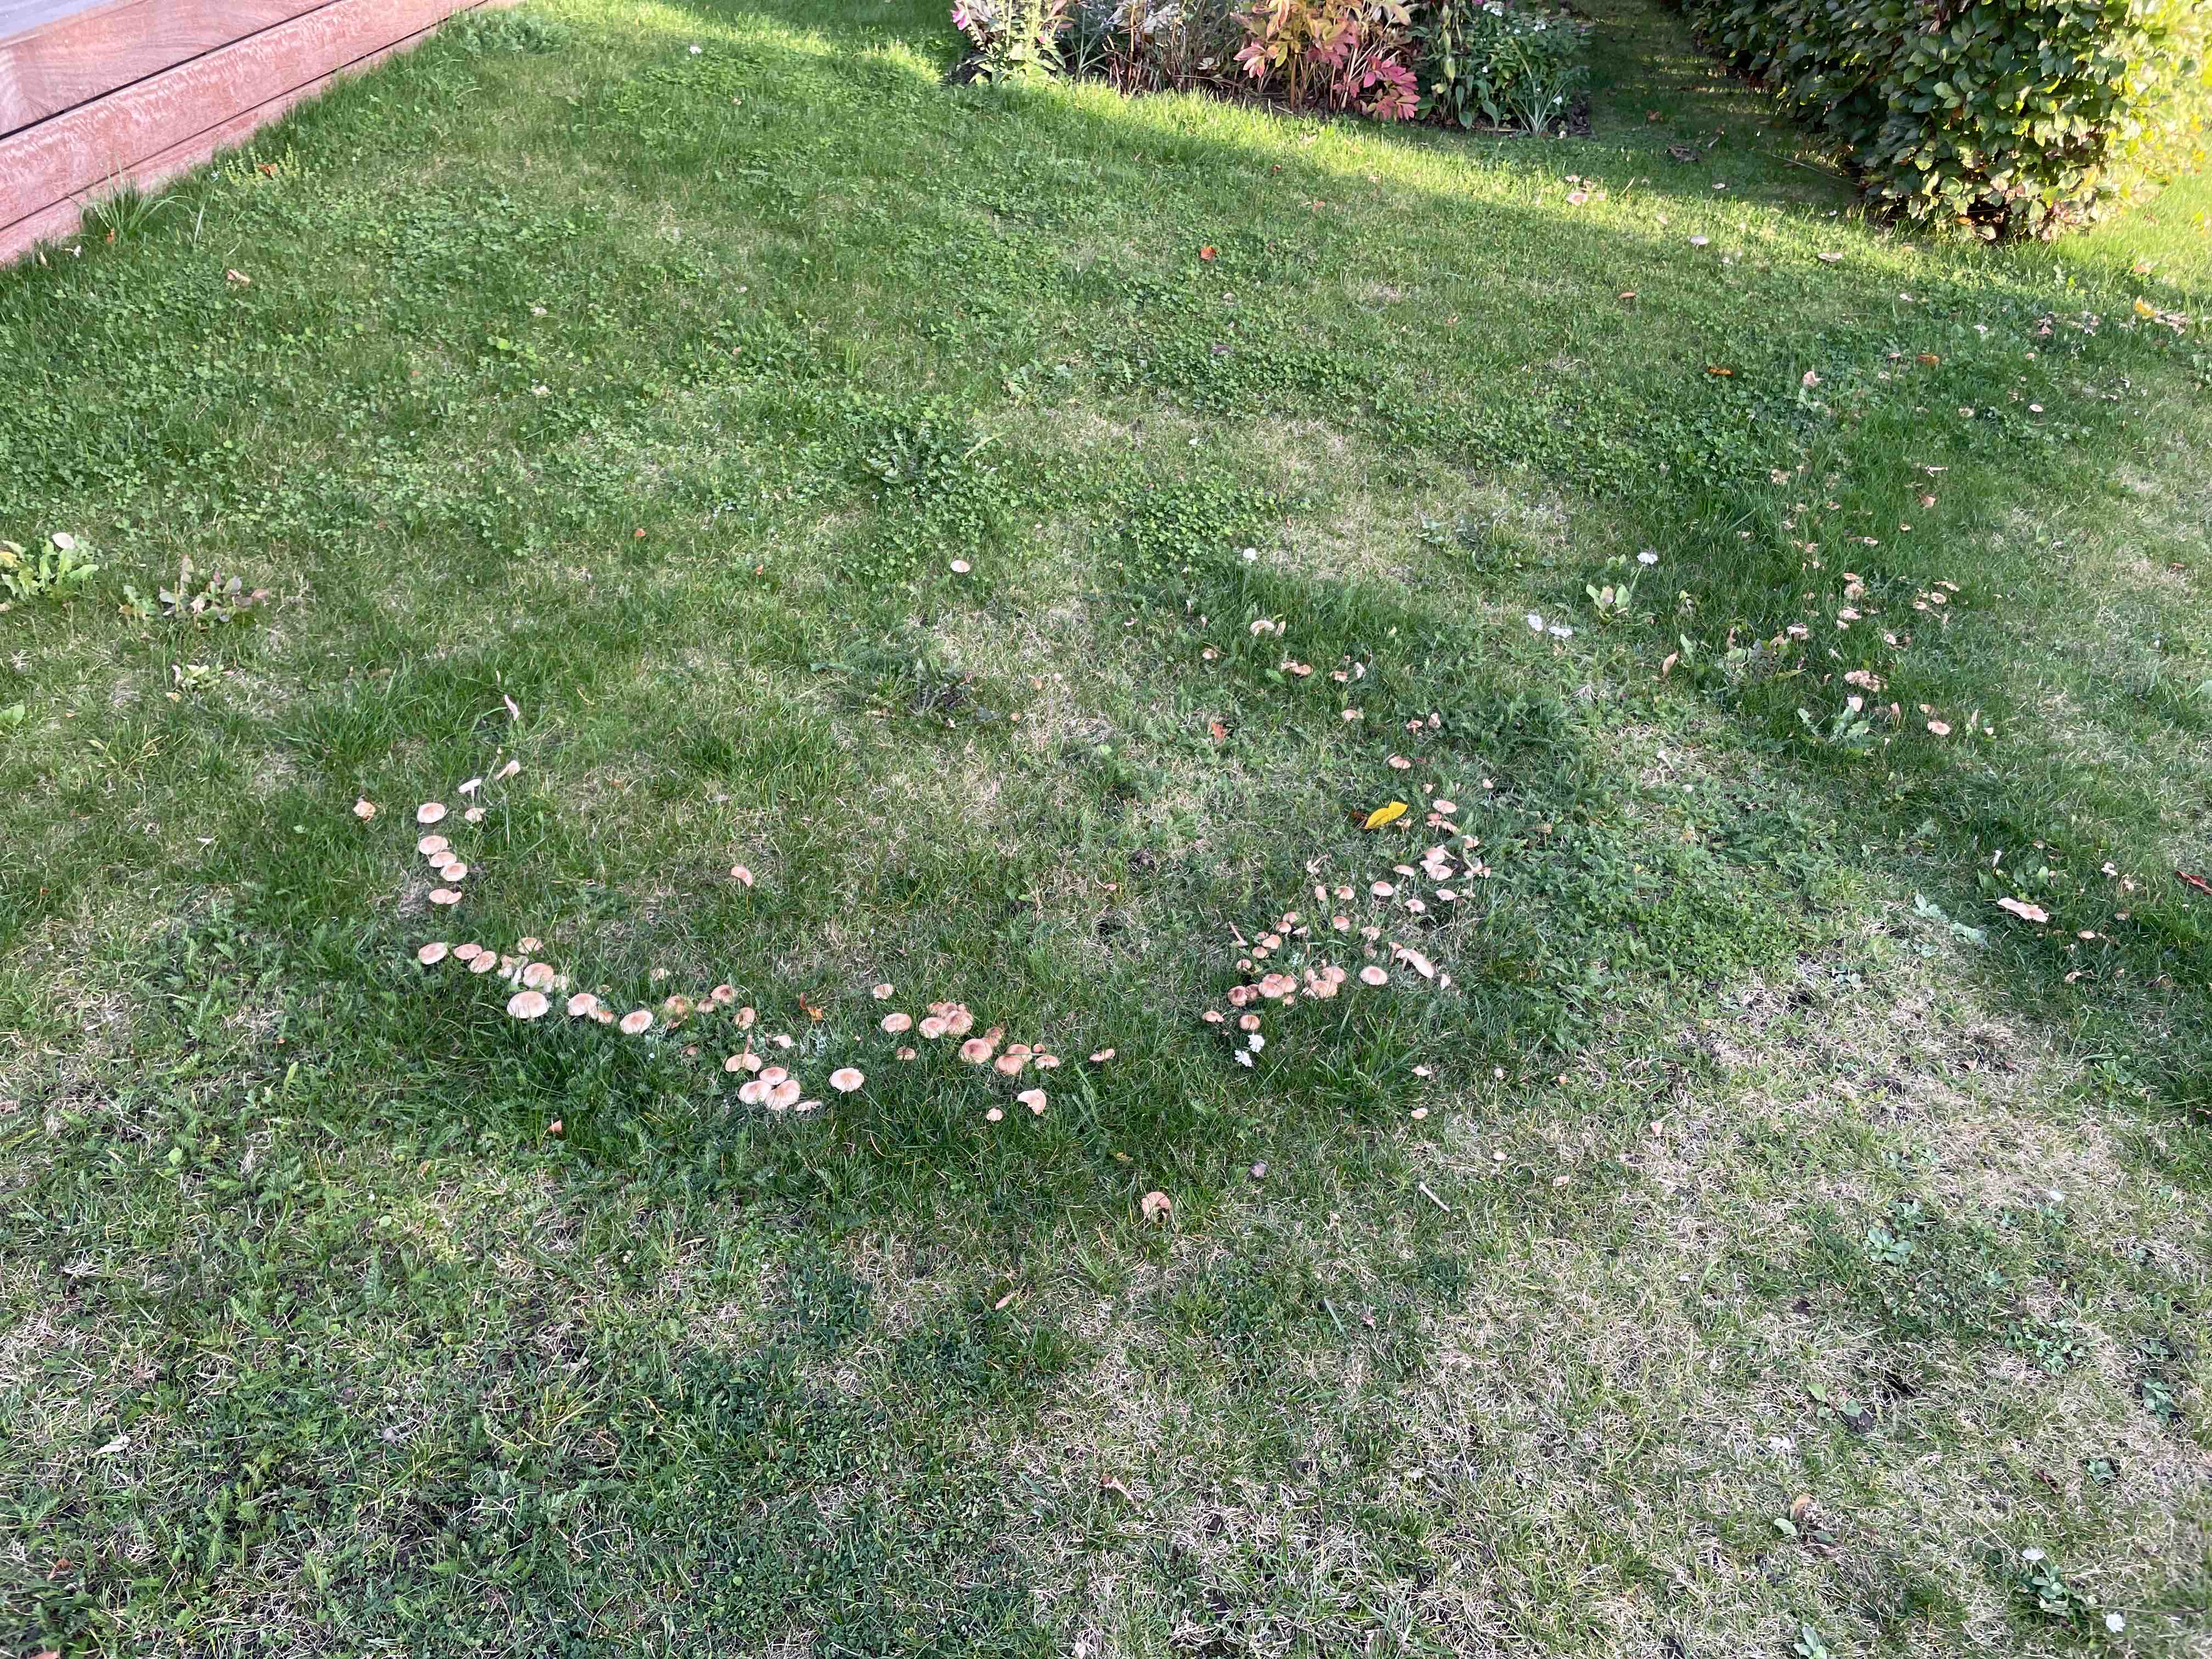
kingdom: Fungi
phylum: Basidiomycota
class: Agaricomycetes
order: Agaricales
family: Marasmiaceae
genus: Marasmius
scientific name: Marasmius oreades
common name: elledans-bruskhat
